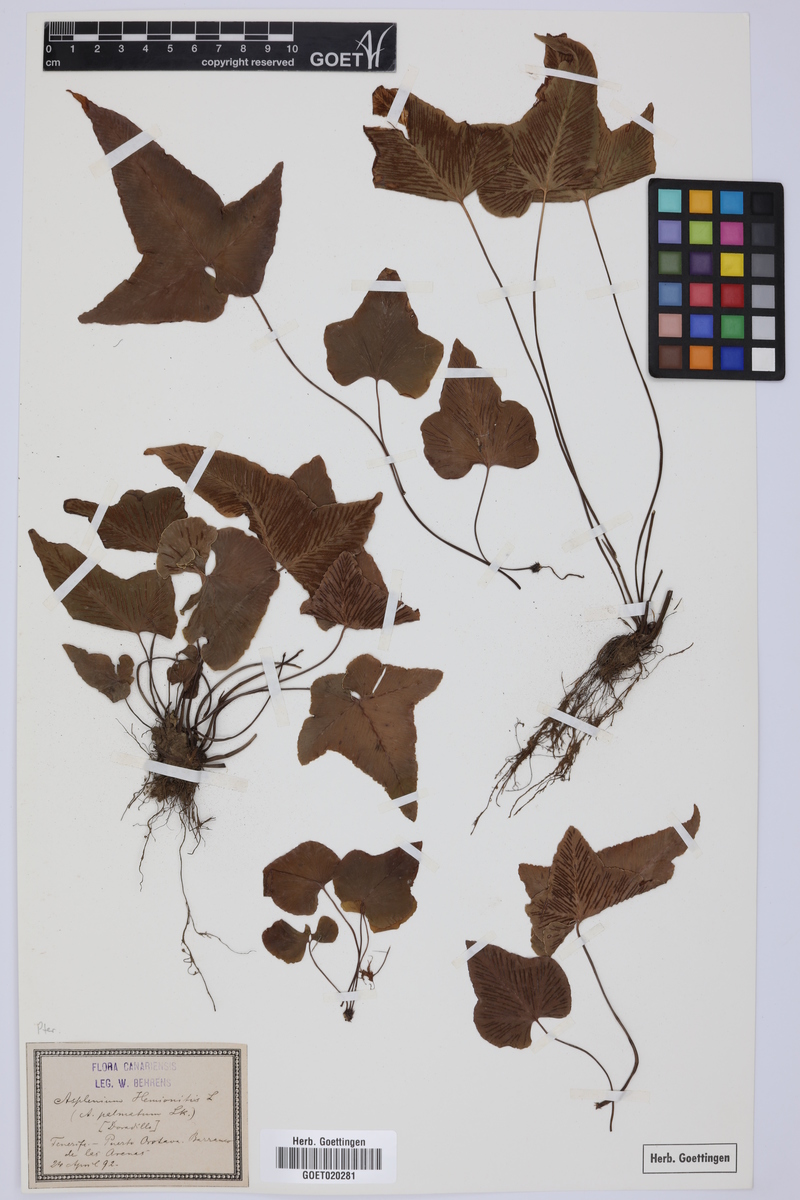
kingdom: Plantae
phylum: Tracheophyta
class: Polypodiopsida
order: Polypodiales
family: Aspleniaceae
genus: Asplenium
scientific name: Asplenium hemionitis
